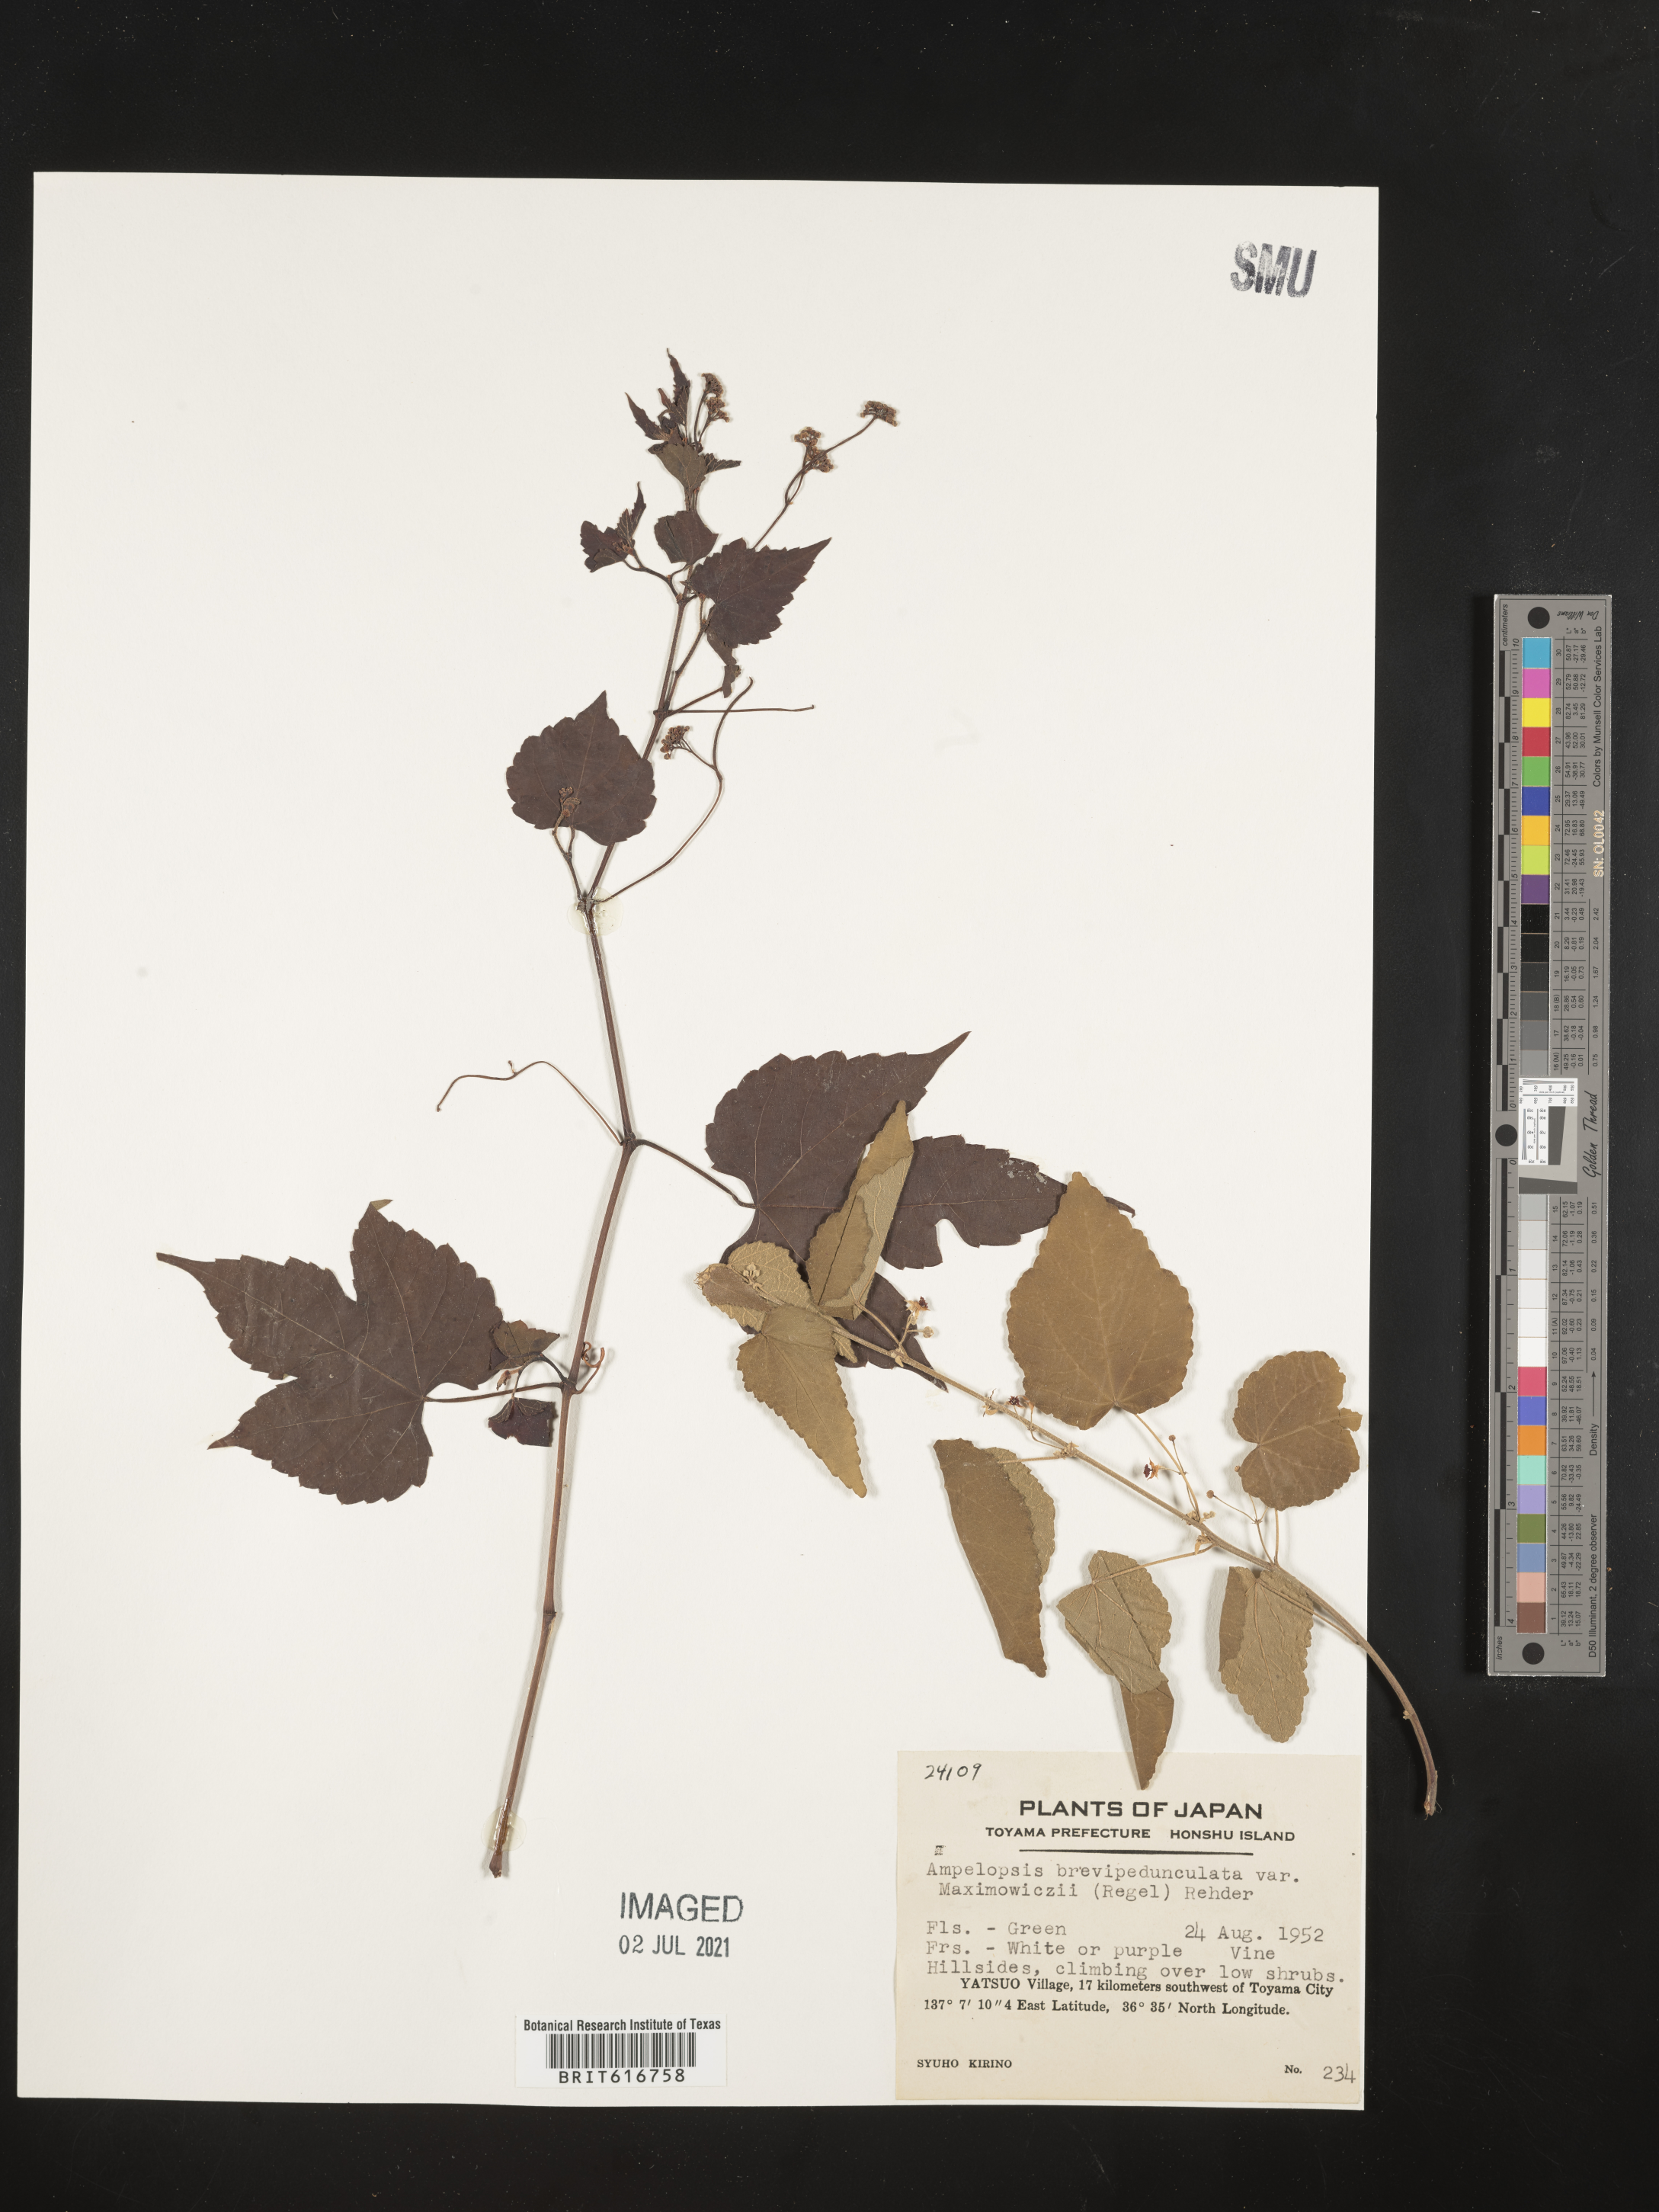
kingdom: Plantae
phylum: Tracheophyta
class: Magnoliopsida
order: Vitales
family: Vitaceae
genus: Ampelopsis
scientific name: Ampelopsis glandulosa
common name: Amur peppervine
